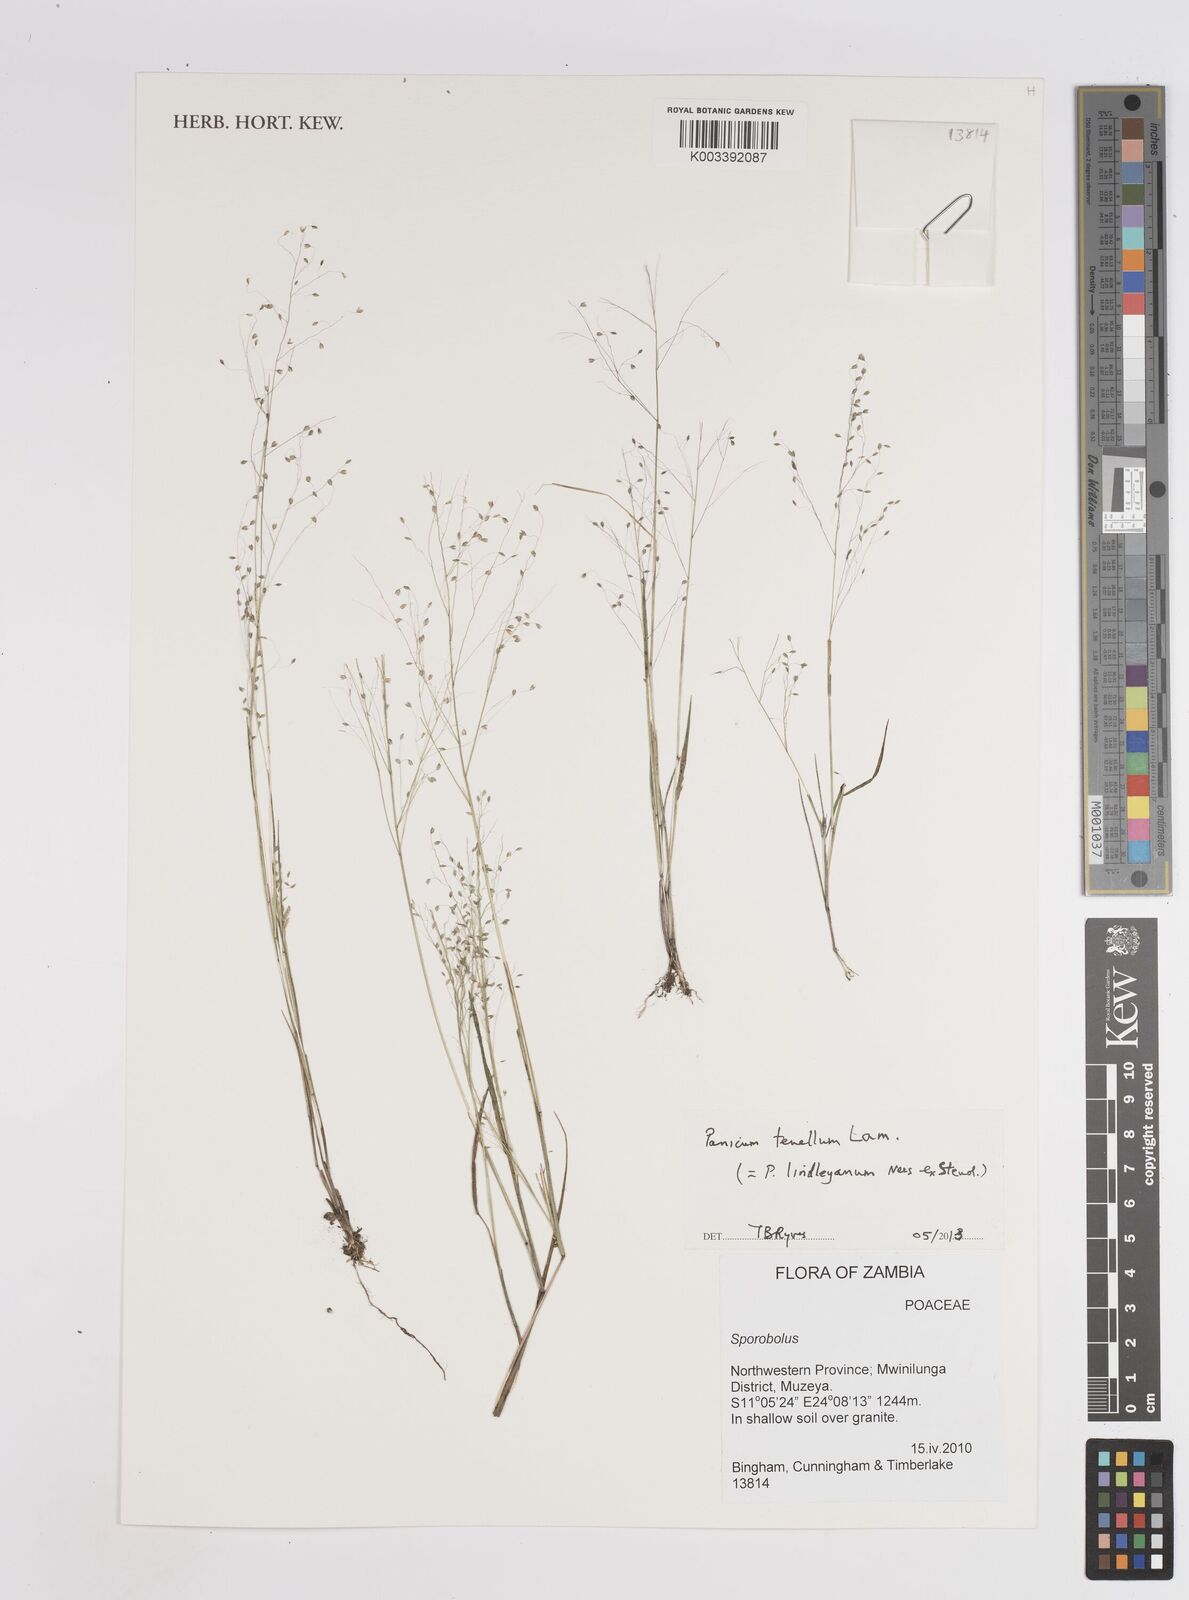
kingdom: Plantae
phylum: Tracheophyta
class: Liliopsida
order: Poales
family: Poaceae
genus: Trichanthecium
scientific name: Trichanthecium tenellum
